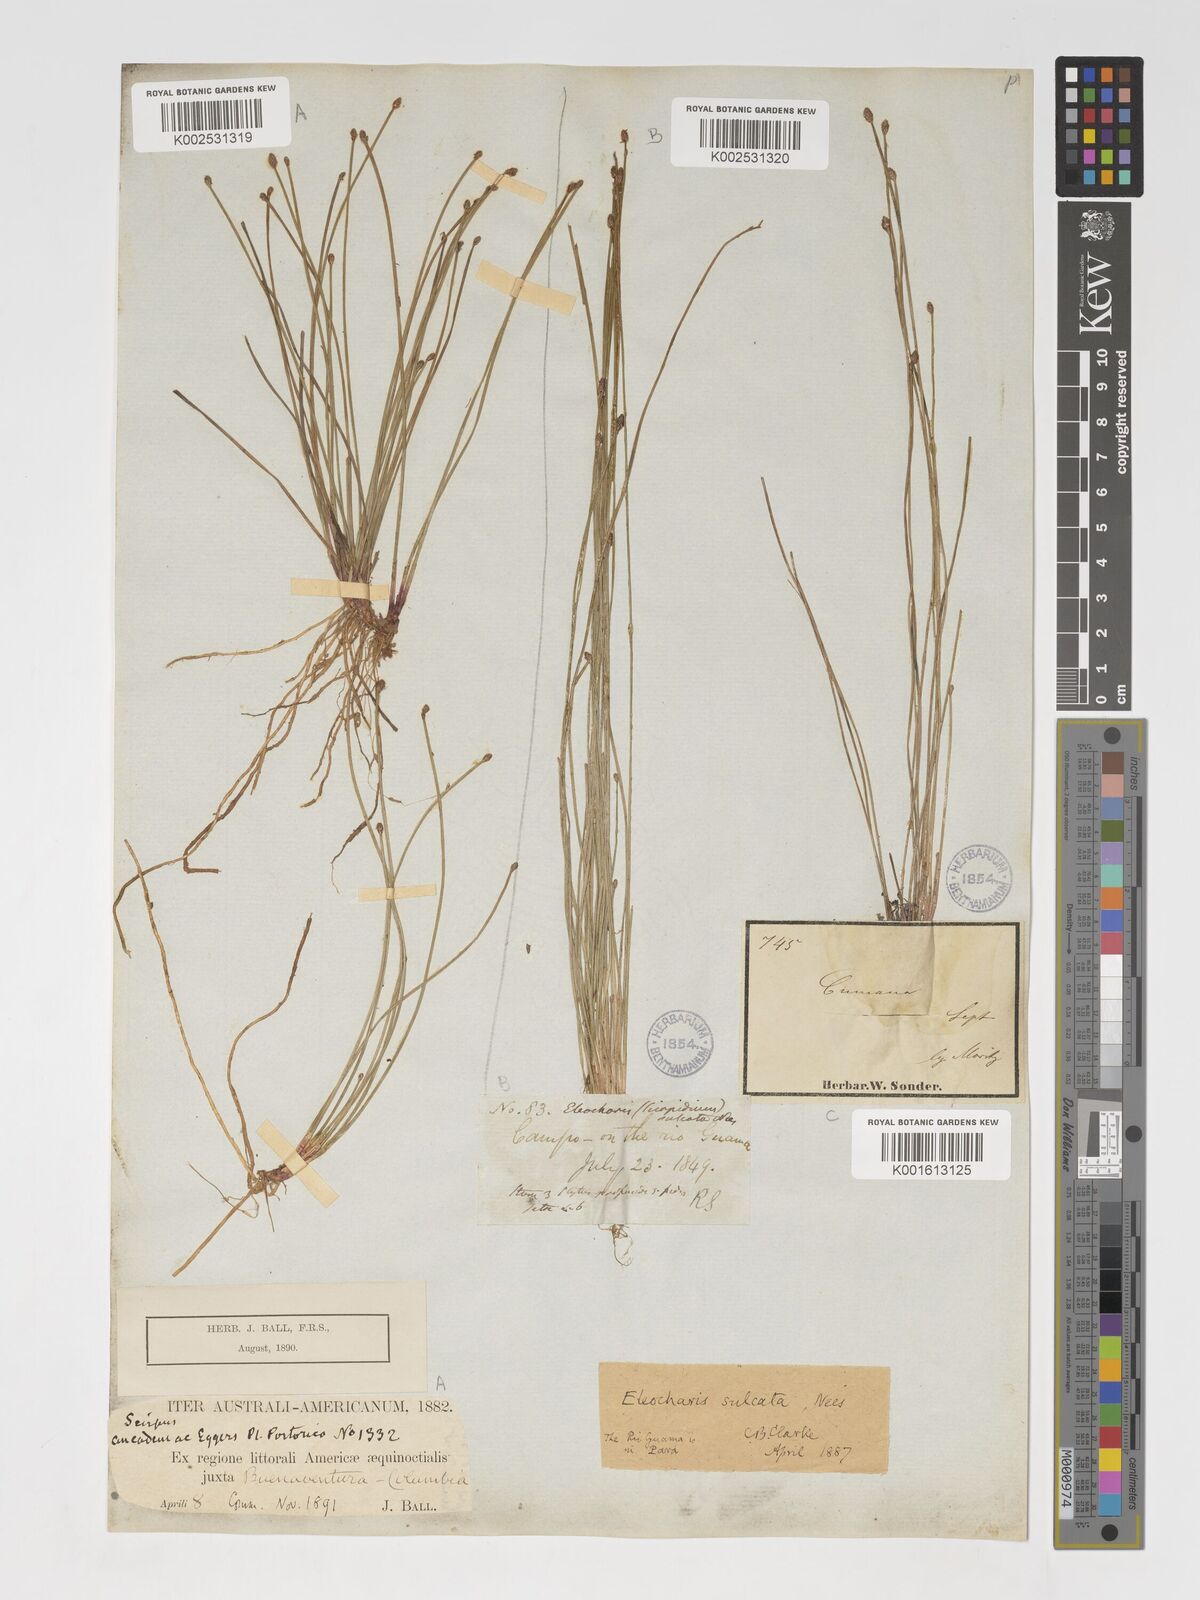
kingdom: Plantae
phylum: Tracheophyta
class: Liliopsida
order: Poales
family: Cyperaceae
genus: Eleocharis
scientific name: Eleocharis filiculmis
